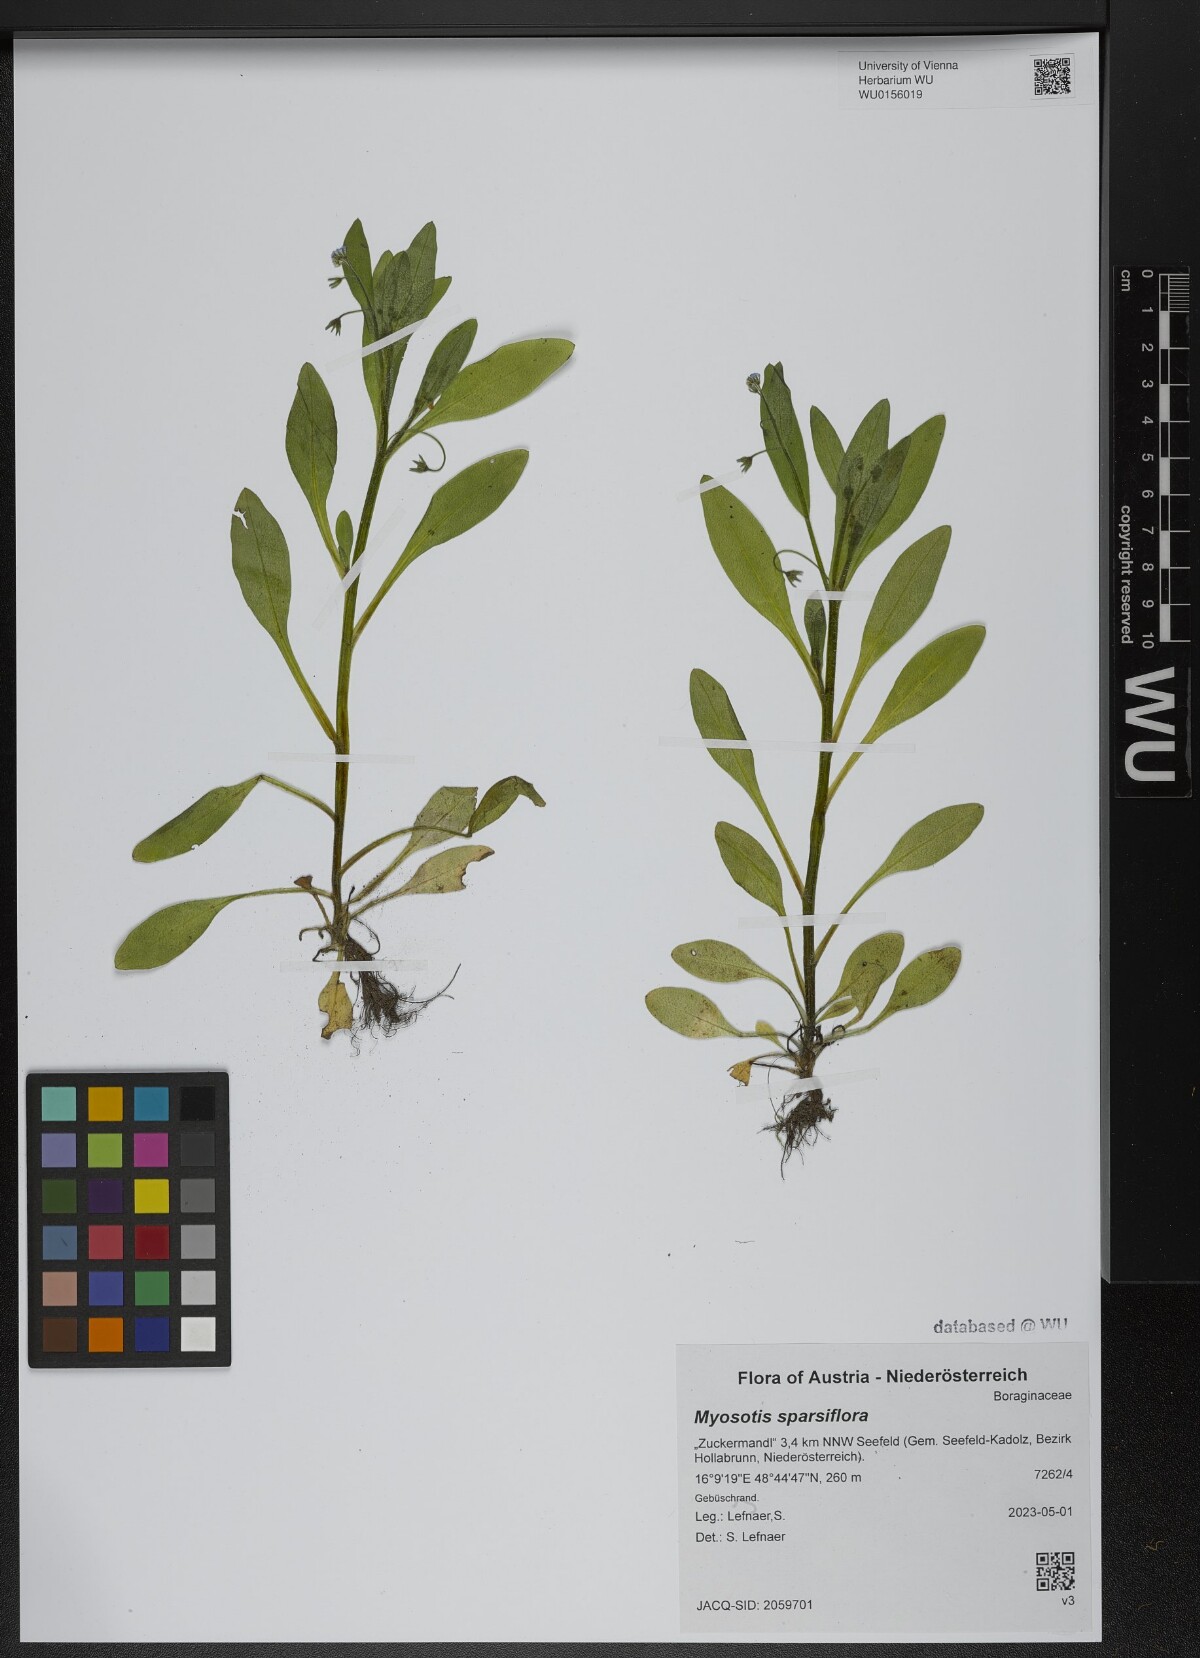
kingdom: Plantae
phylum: Tracheophyta
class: Magnoliopsida
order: Boraginales
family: Boraginaceae
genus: Myosotis
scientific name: Myosotis sparsiflora
